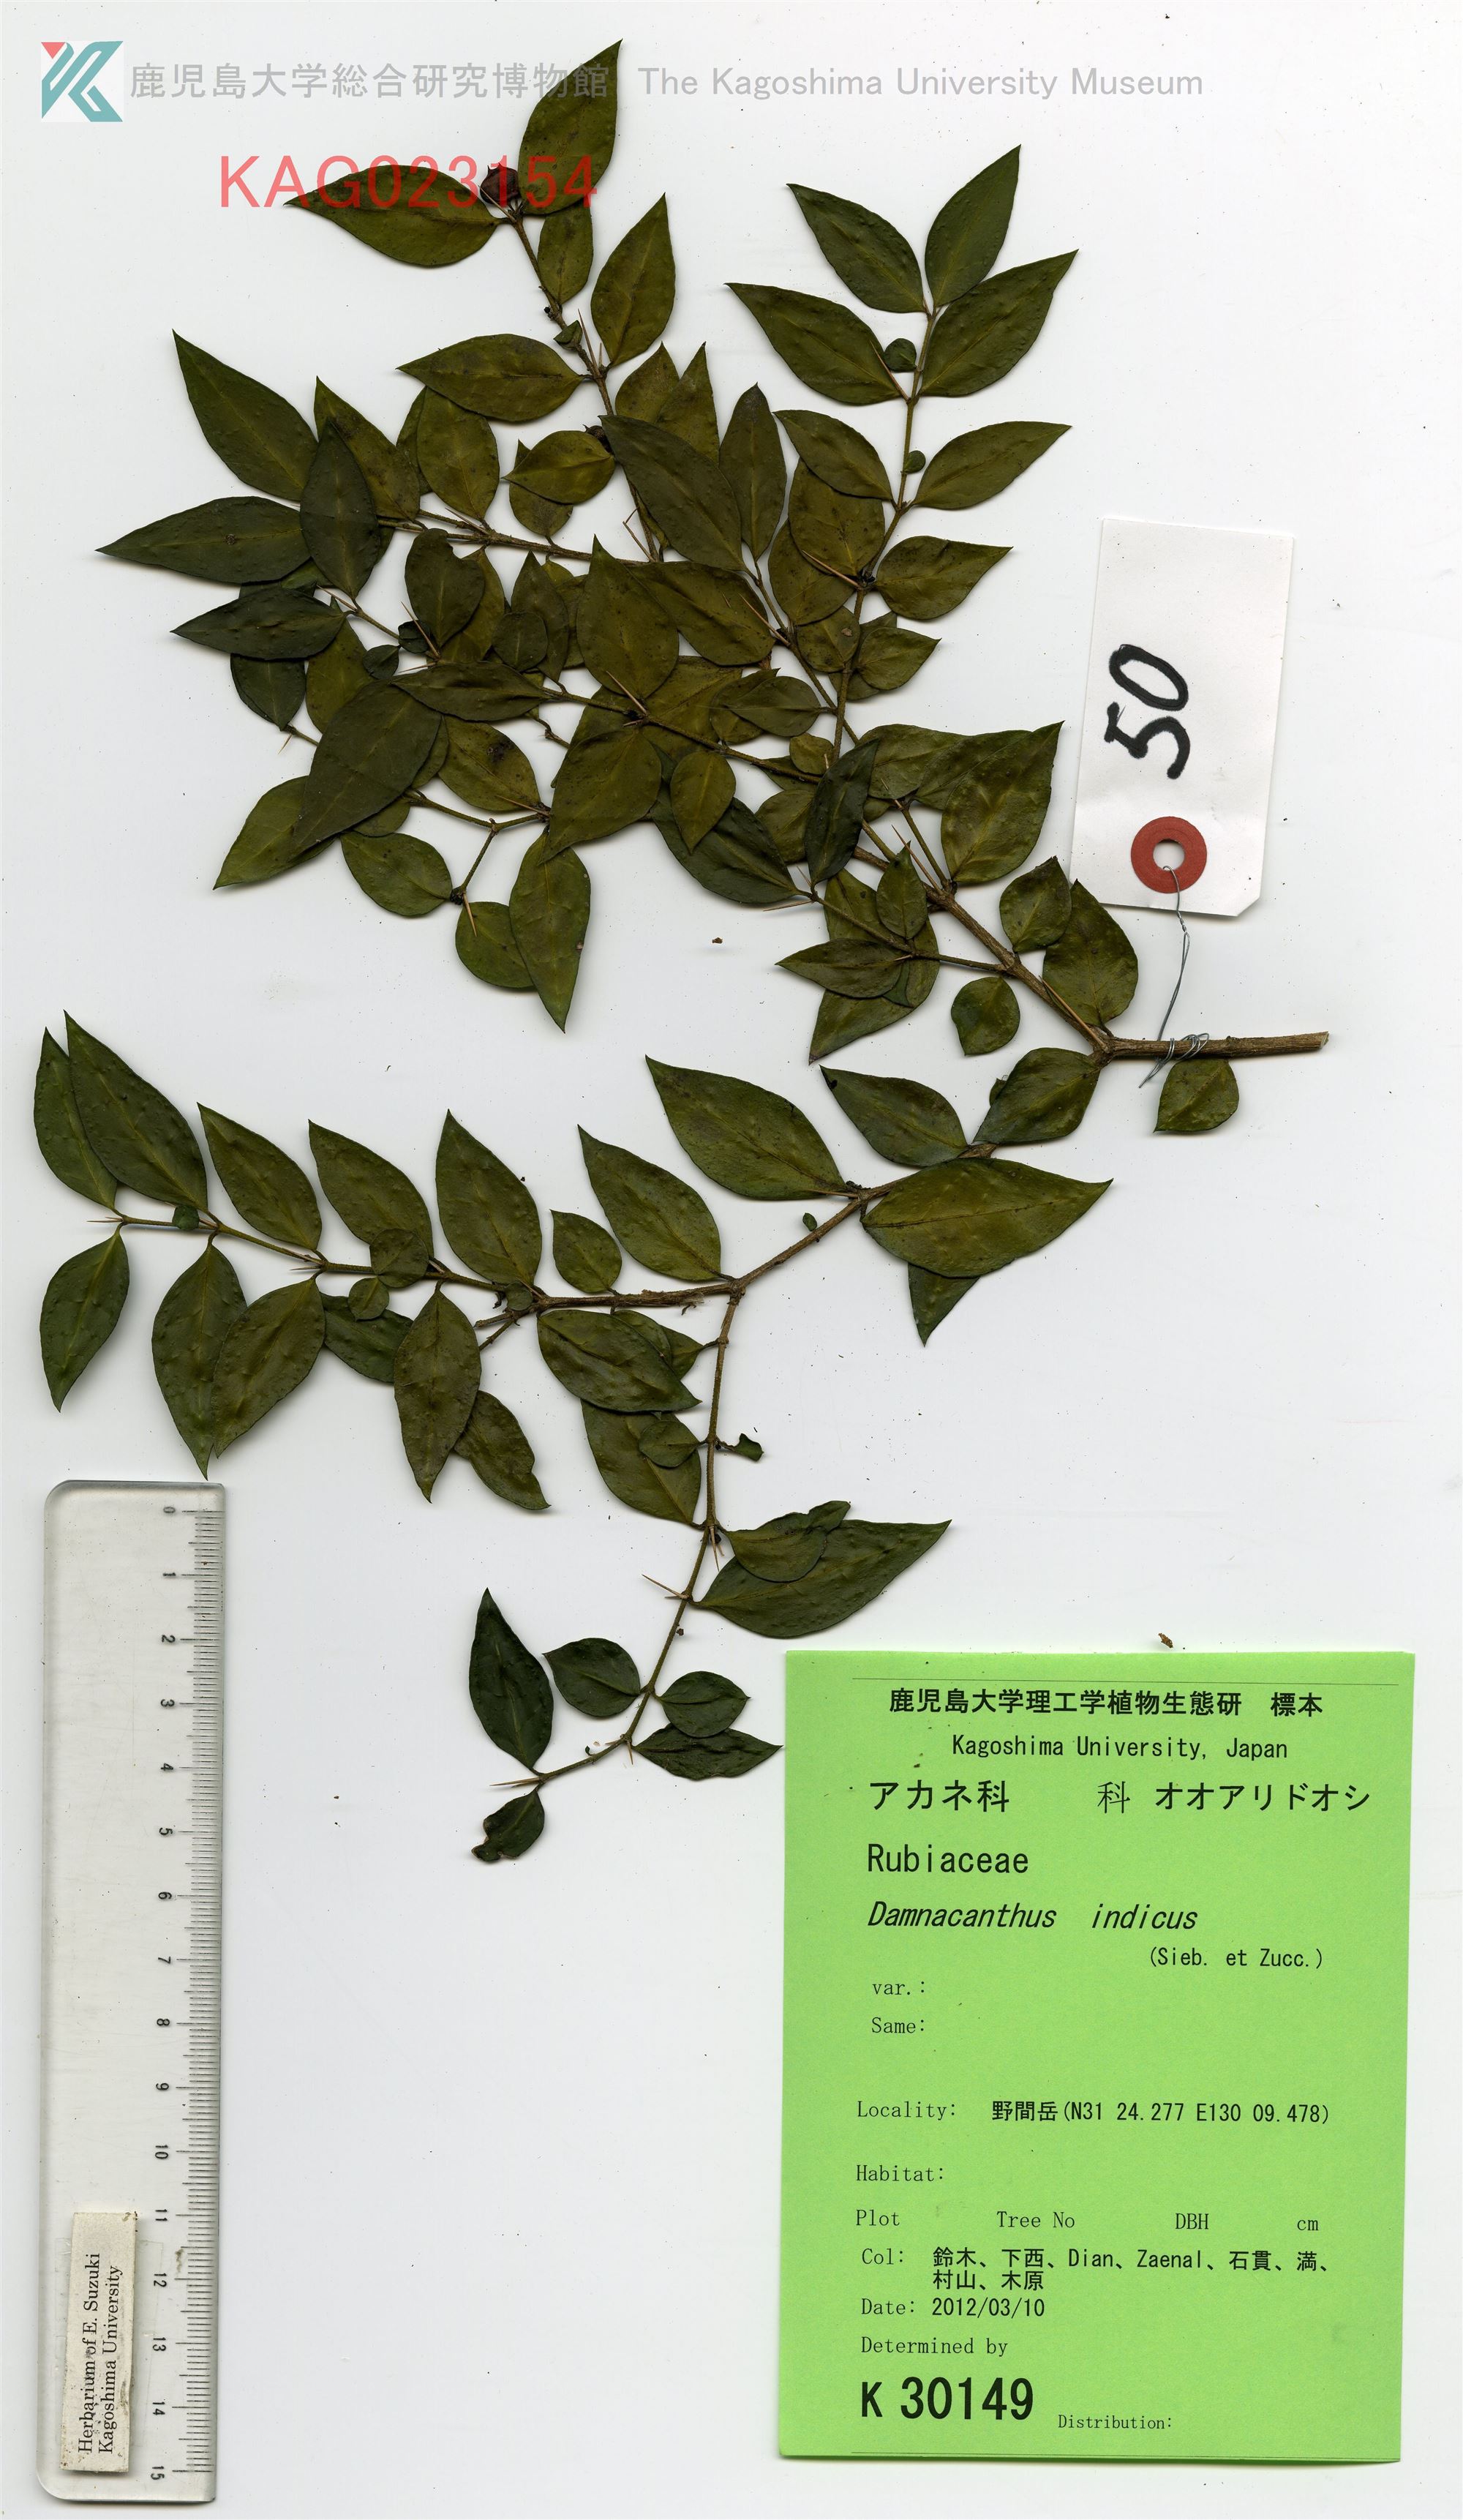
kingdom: Plantae
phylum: Tracheophyta
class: Magnoliopsida
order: Gentianales
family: Rubiaceae
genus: Damnacanthus
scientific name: Damnacanthus major
